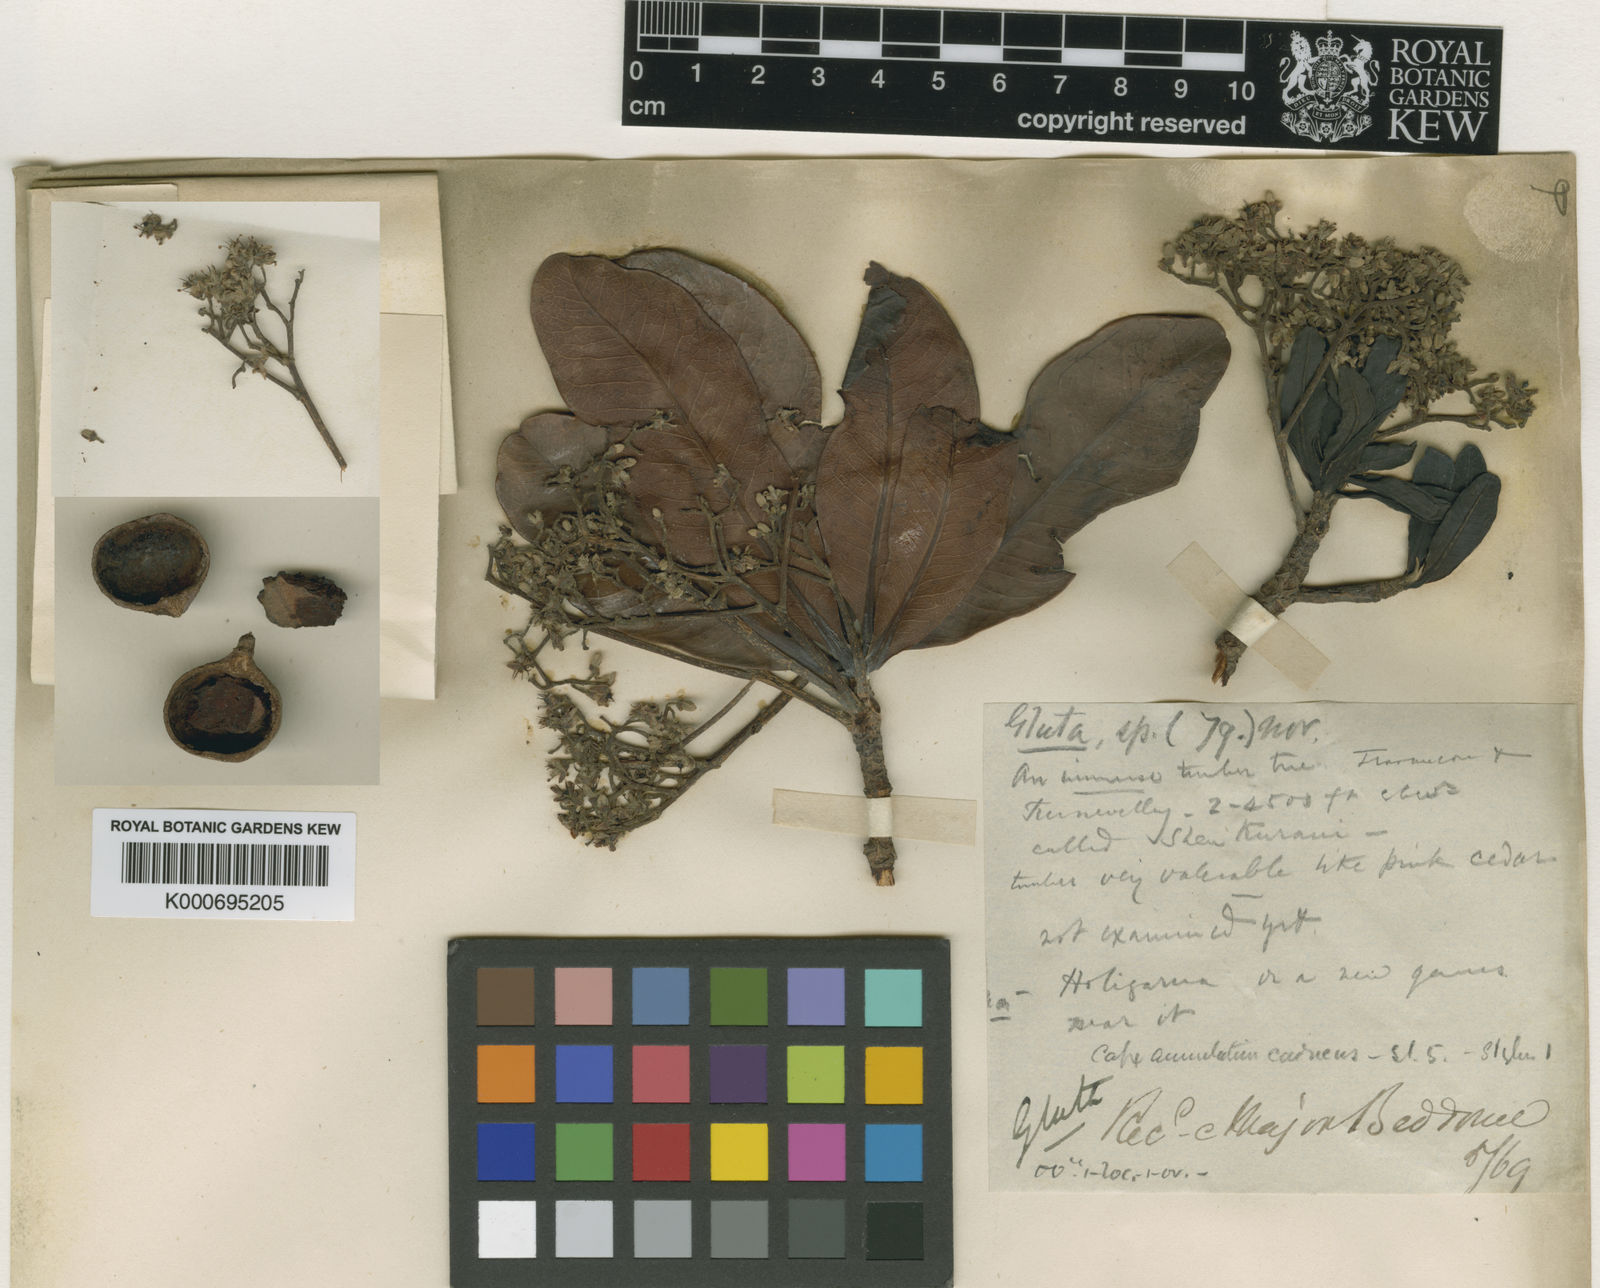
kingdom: Plantae
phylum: Tracheophyta
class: Magnoliopsida
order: Sapindales
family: Anacardiaceae
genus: Gluta
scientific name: Gluta travancorica
